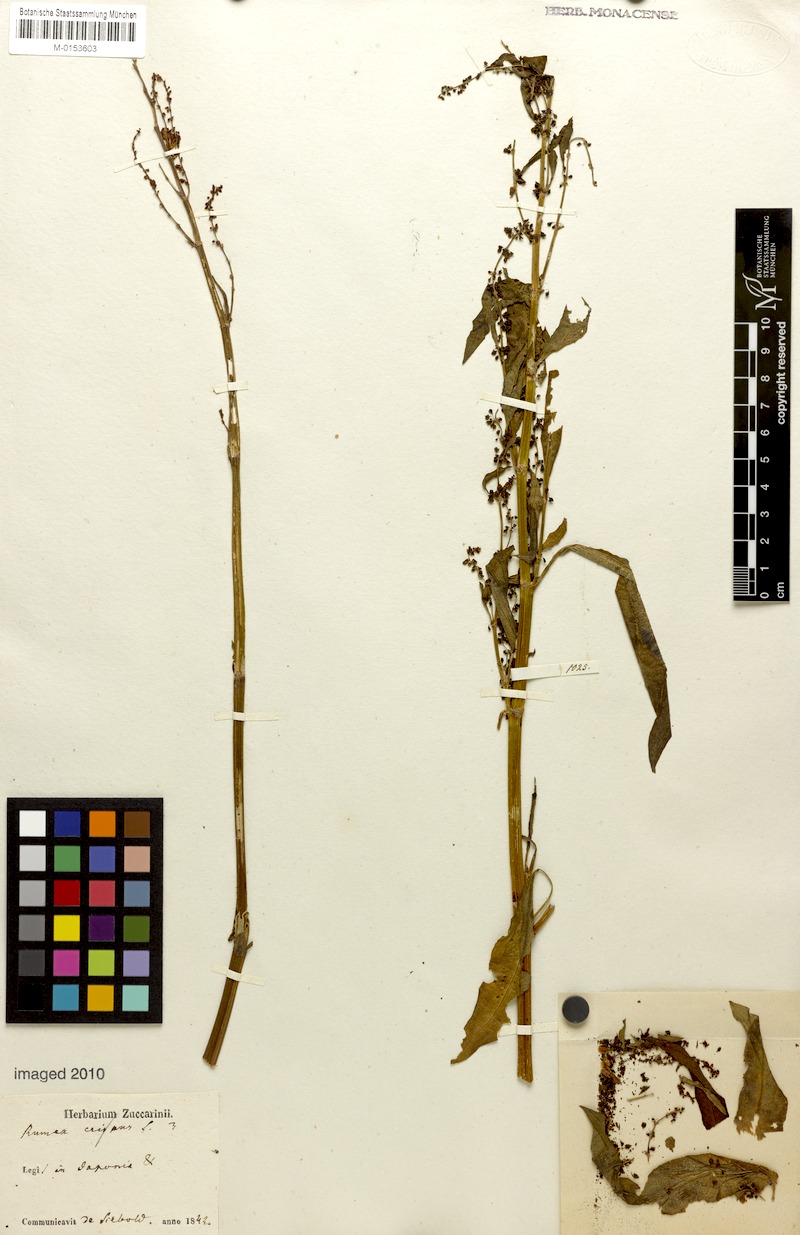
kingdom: Plantae
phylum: Tracheophyta
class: Magnoliopsida
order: Caryophyllales
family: Polygonaceae
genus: Rumex
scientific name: Rumex crispus
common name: Curled dock
